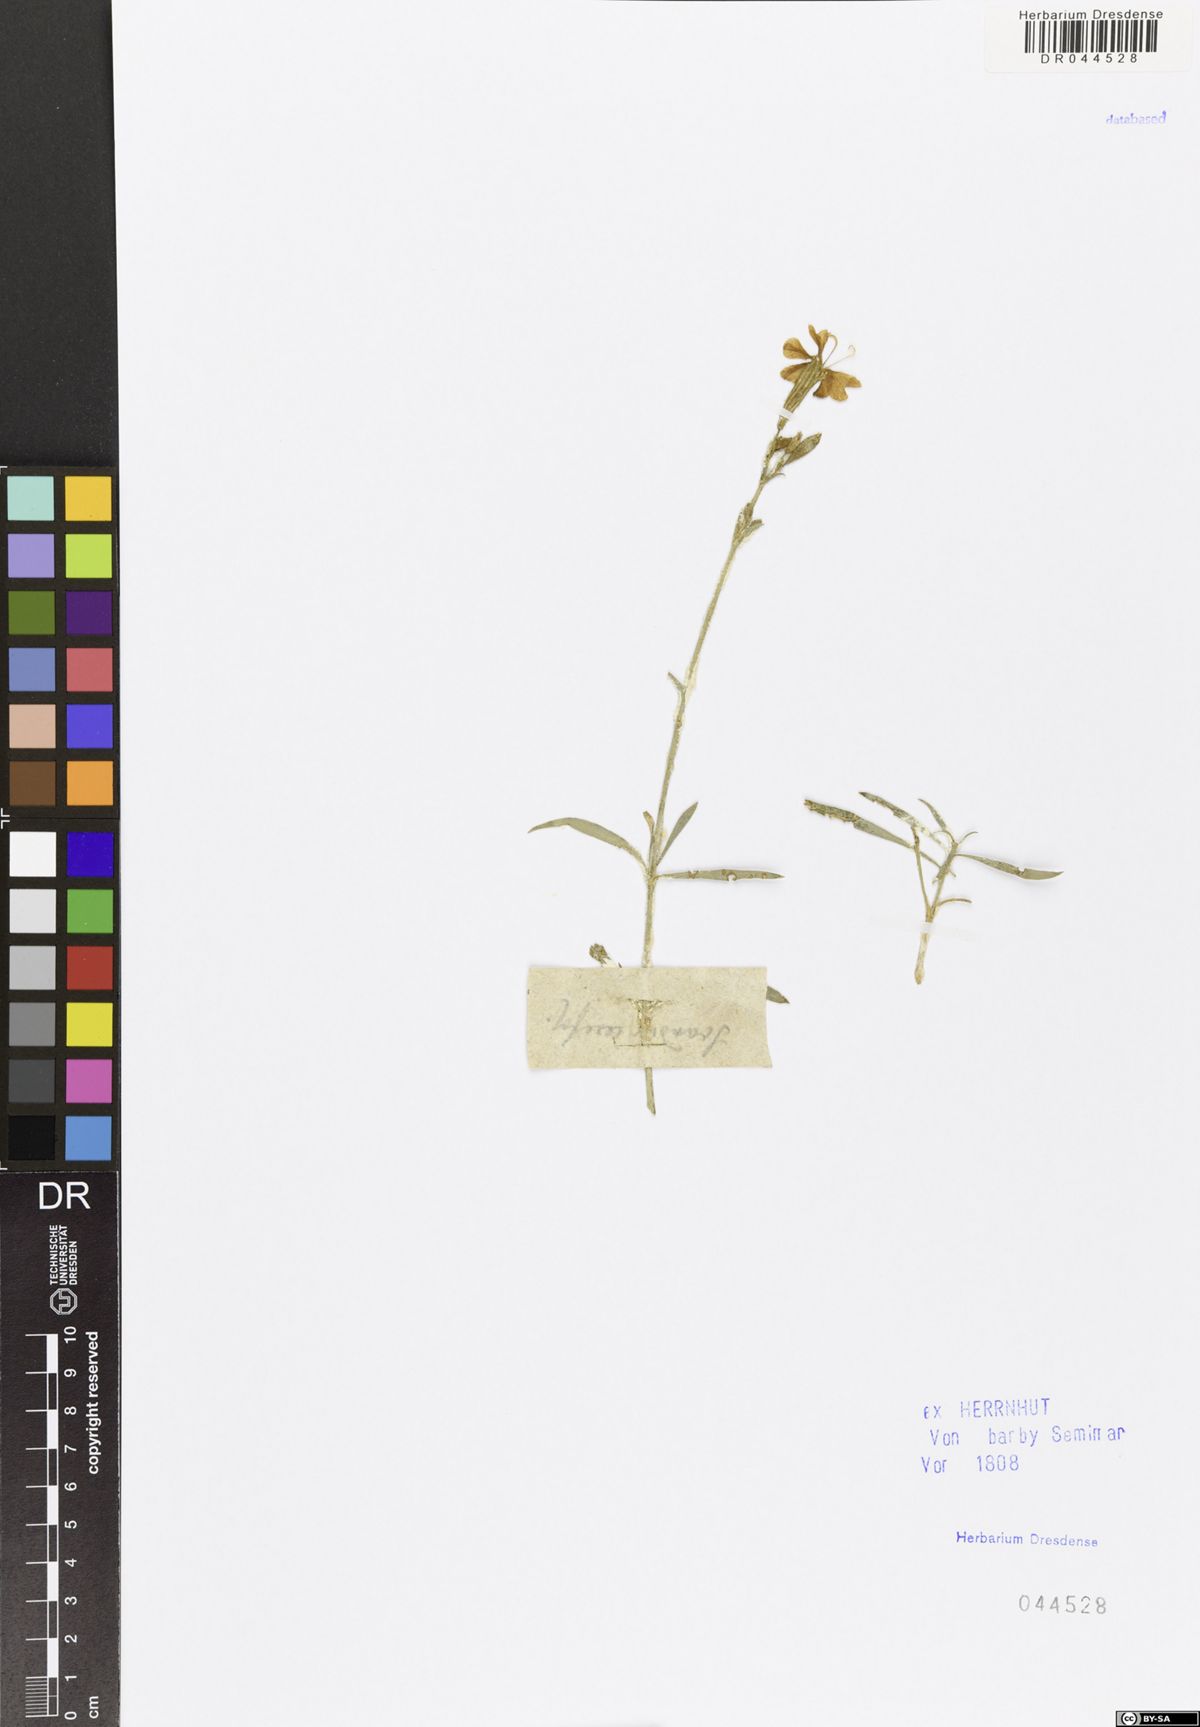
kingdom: Plantae
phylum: Tracheophyta
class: Magnoliopsida
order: Apiales
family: Apiaceae
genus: Anthriscus
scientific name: Anthriscus cerefolium
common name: Garden chervil
